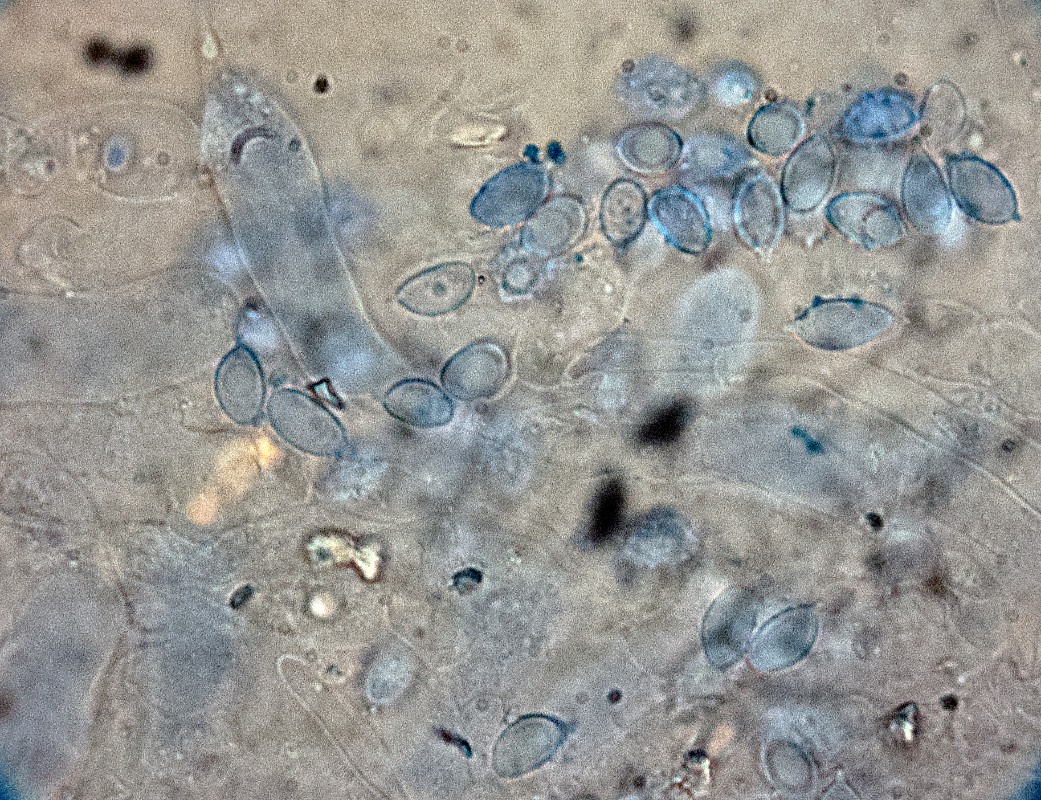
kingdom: Fungi
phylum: Basidiomycota
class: Agaricomycetes
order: Agaricales
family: Stephanosporaceae
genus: Lindtneria
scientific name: Lindtneria panphyliensis
